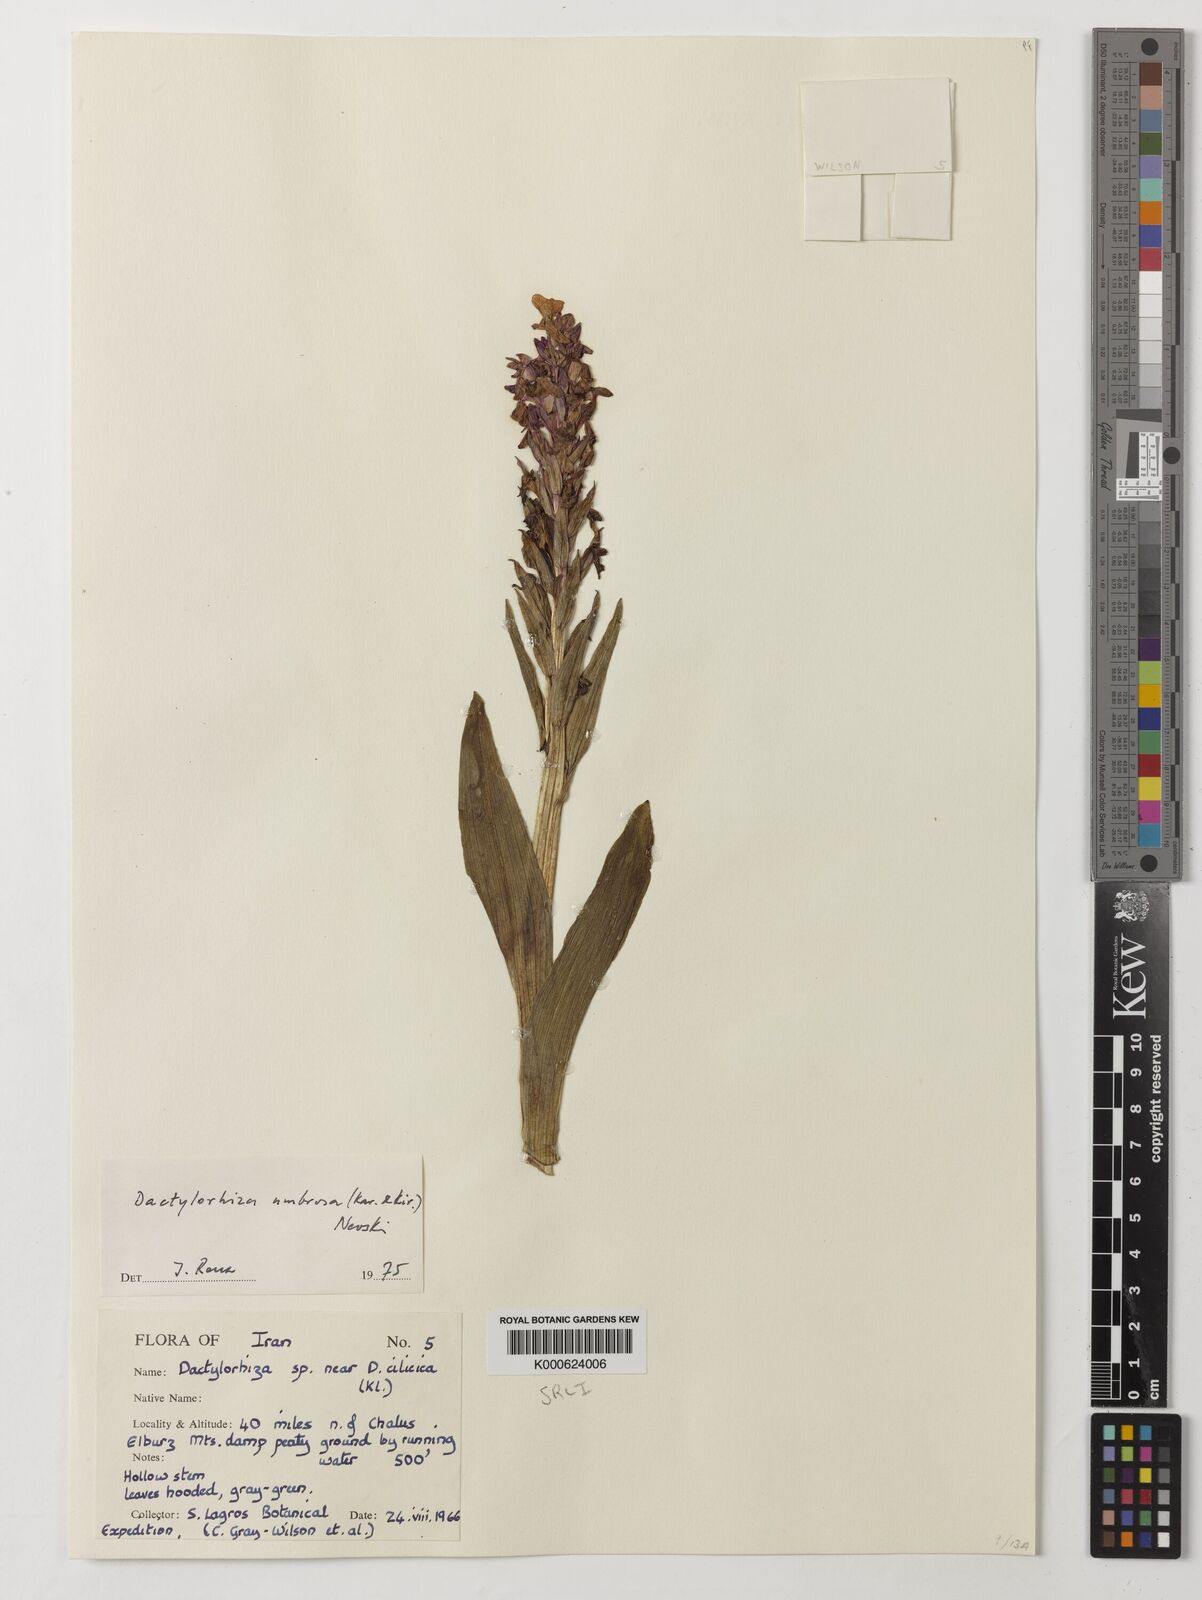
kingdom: Plantae
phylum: Tracheophyta
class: Liliopsida
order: Asparagales
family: Orchidaceae
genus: Dactylorhiza
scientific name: Dactylorhiza
